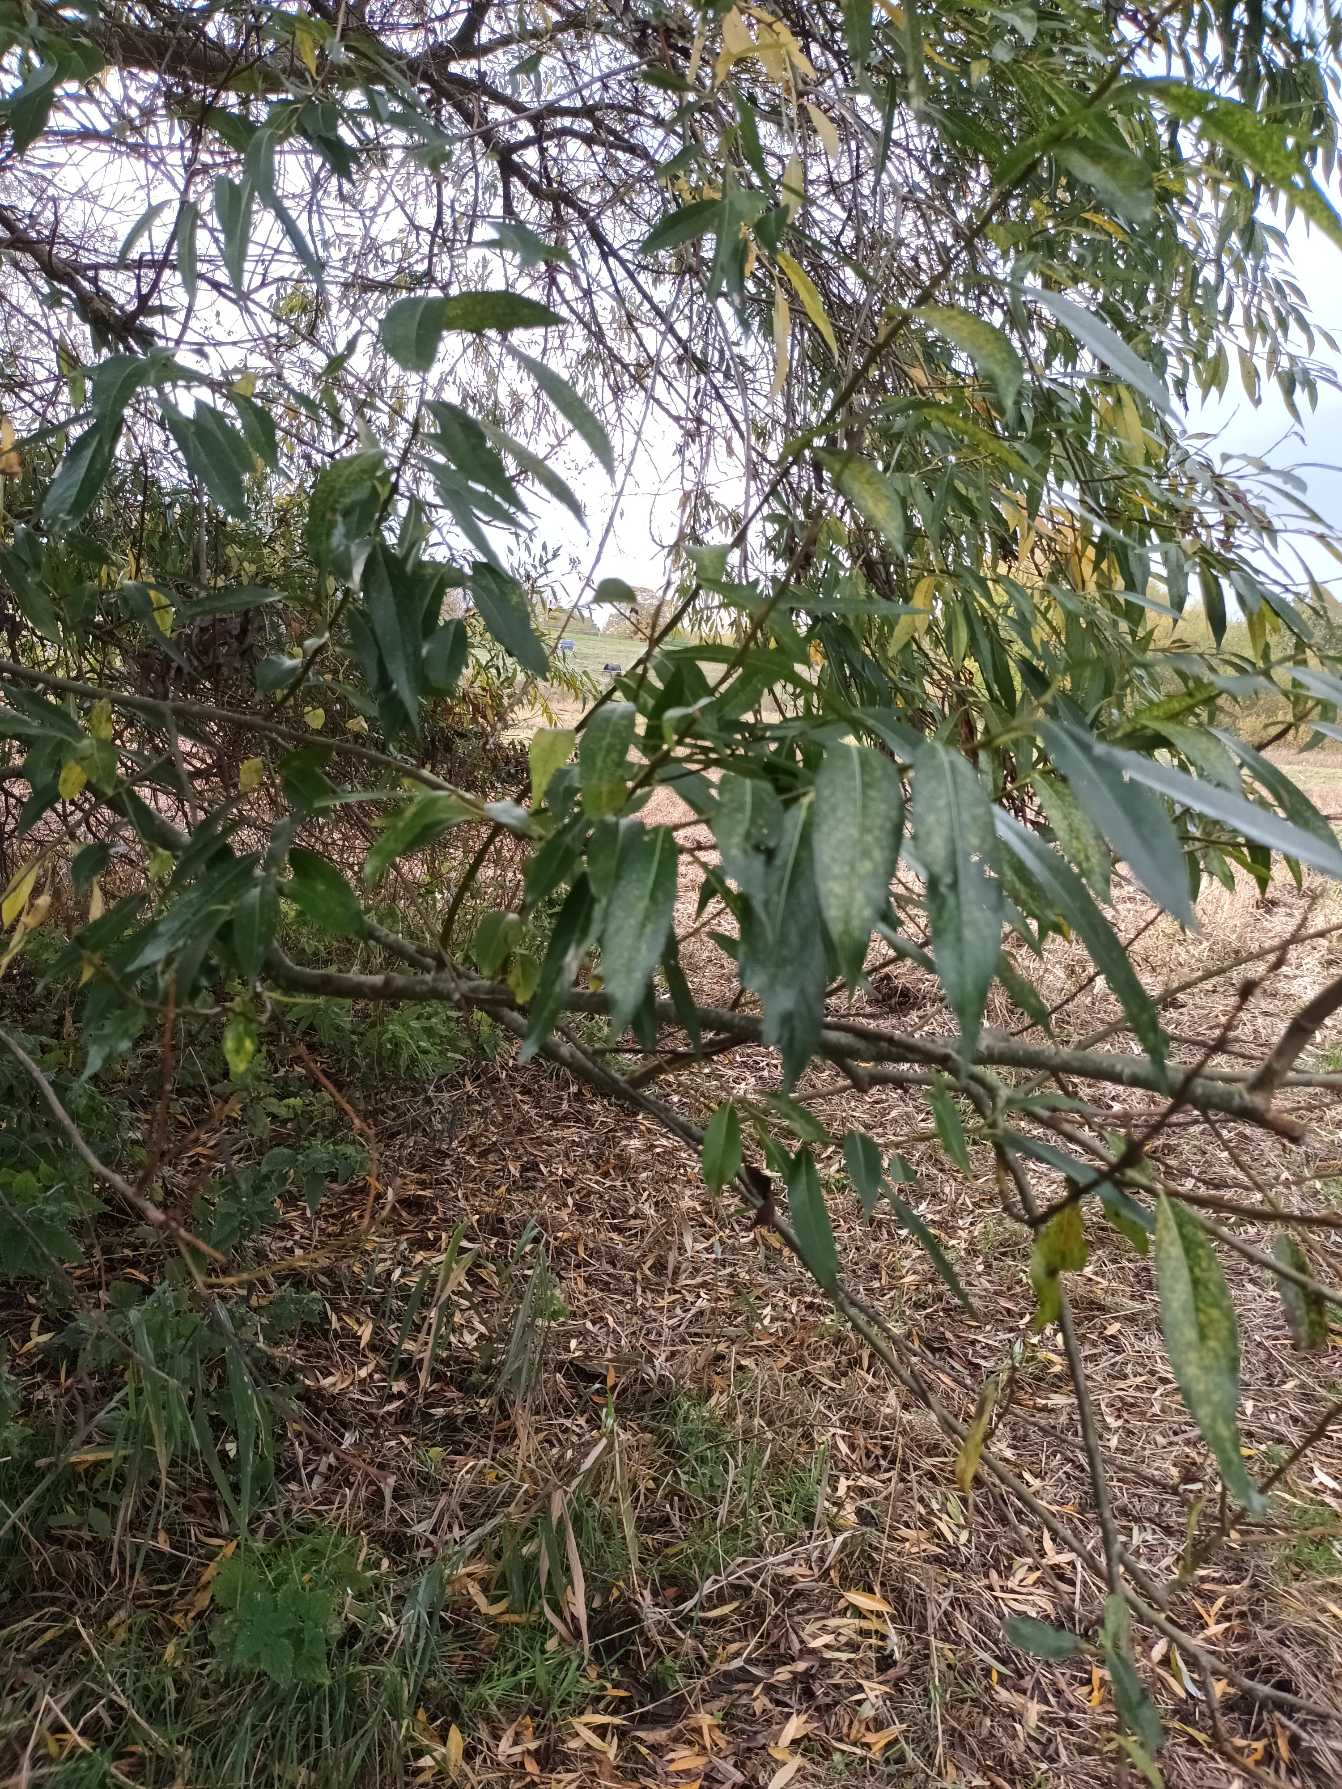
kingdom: Plantae
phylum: Tracheophyta
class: Magnoliopsida
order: Malpighiales
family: Salicaceae
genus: Salix
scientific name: Salix alba
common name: Skør-pil
